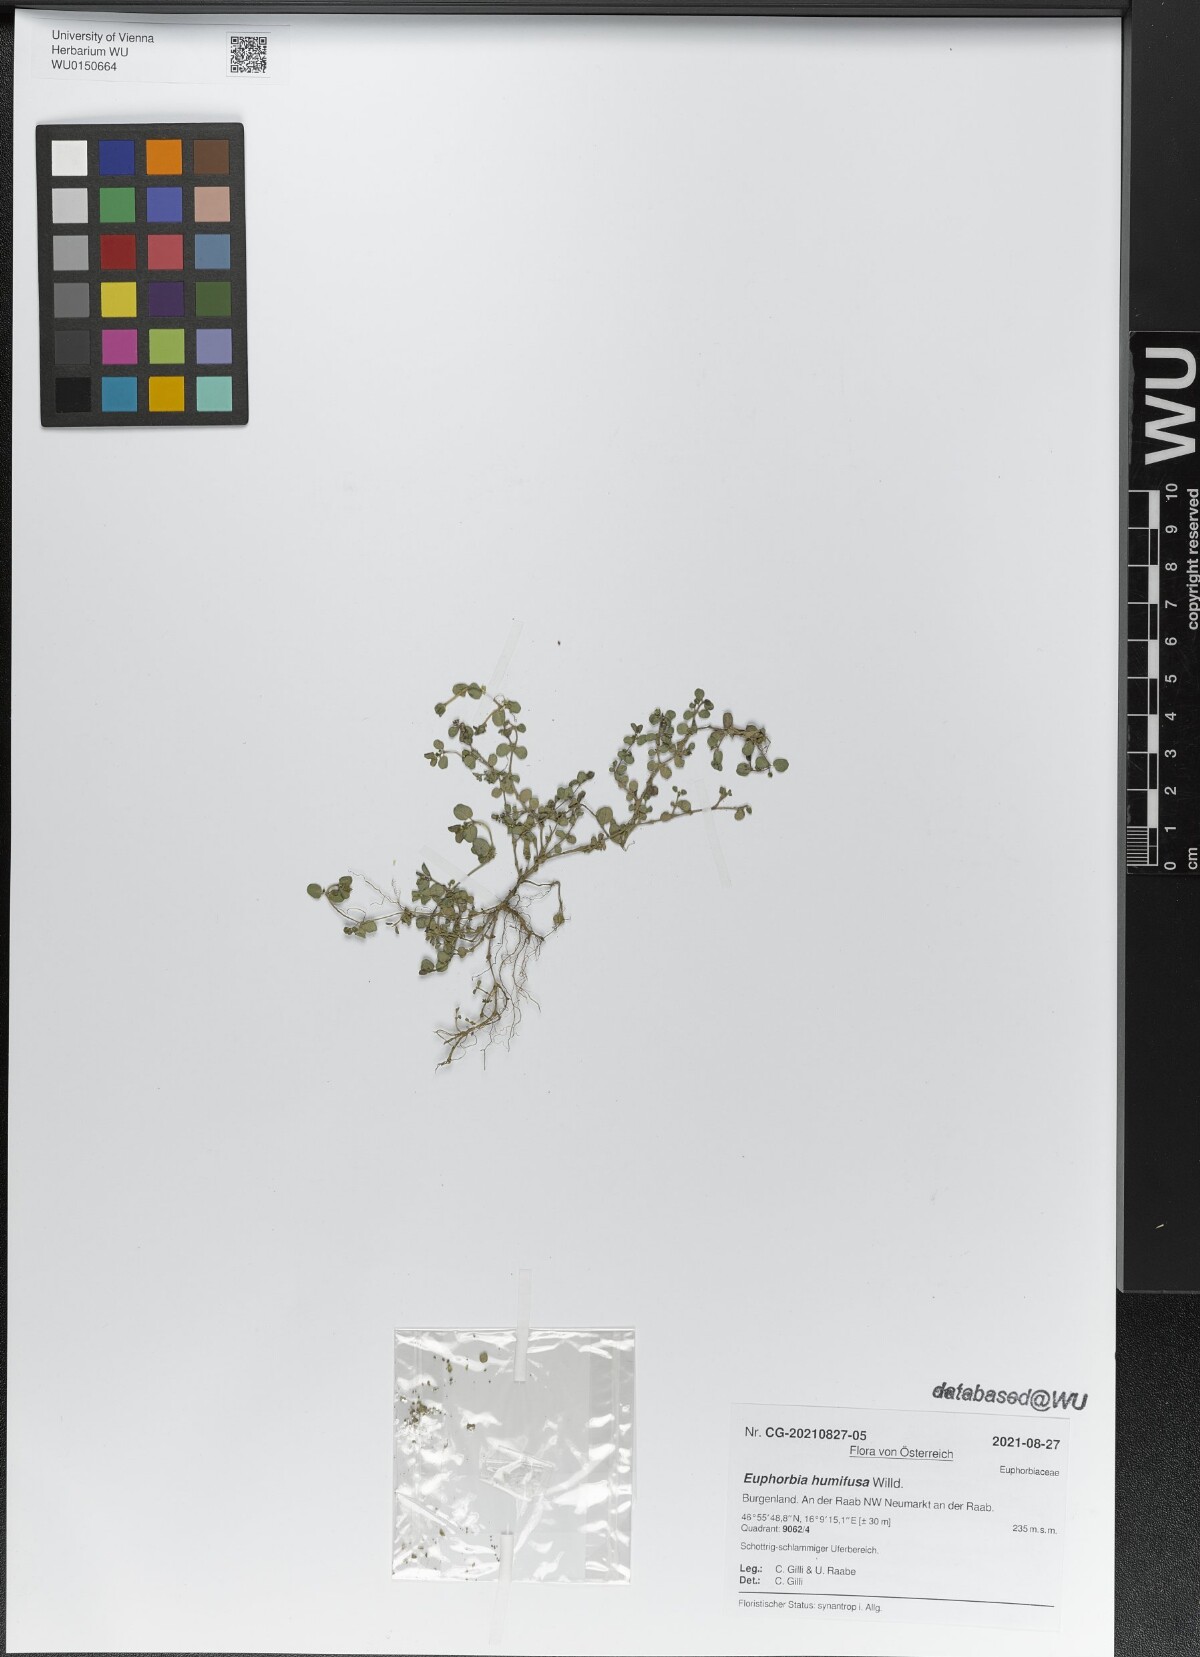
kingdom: Plantae
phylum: Tracheophyta
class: Magnoliopsida
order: Malpighiales
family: Euphorbiaceae
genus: Euphorbia
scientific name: Euphorbia humifusa
